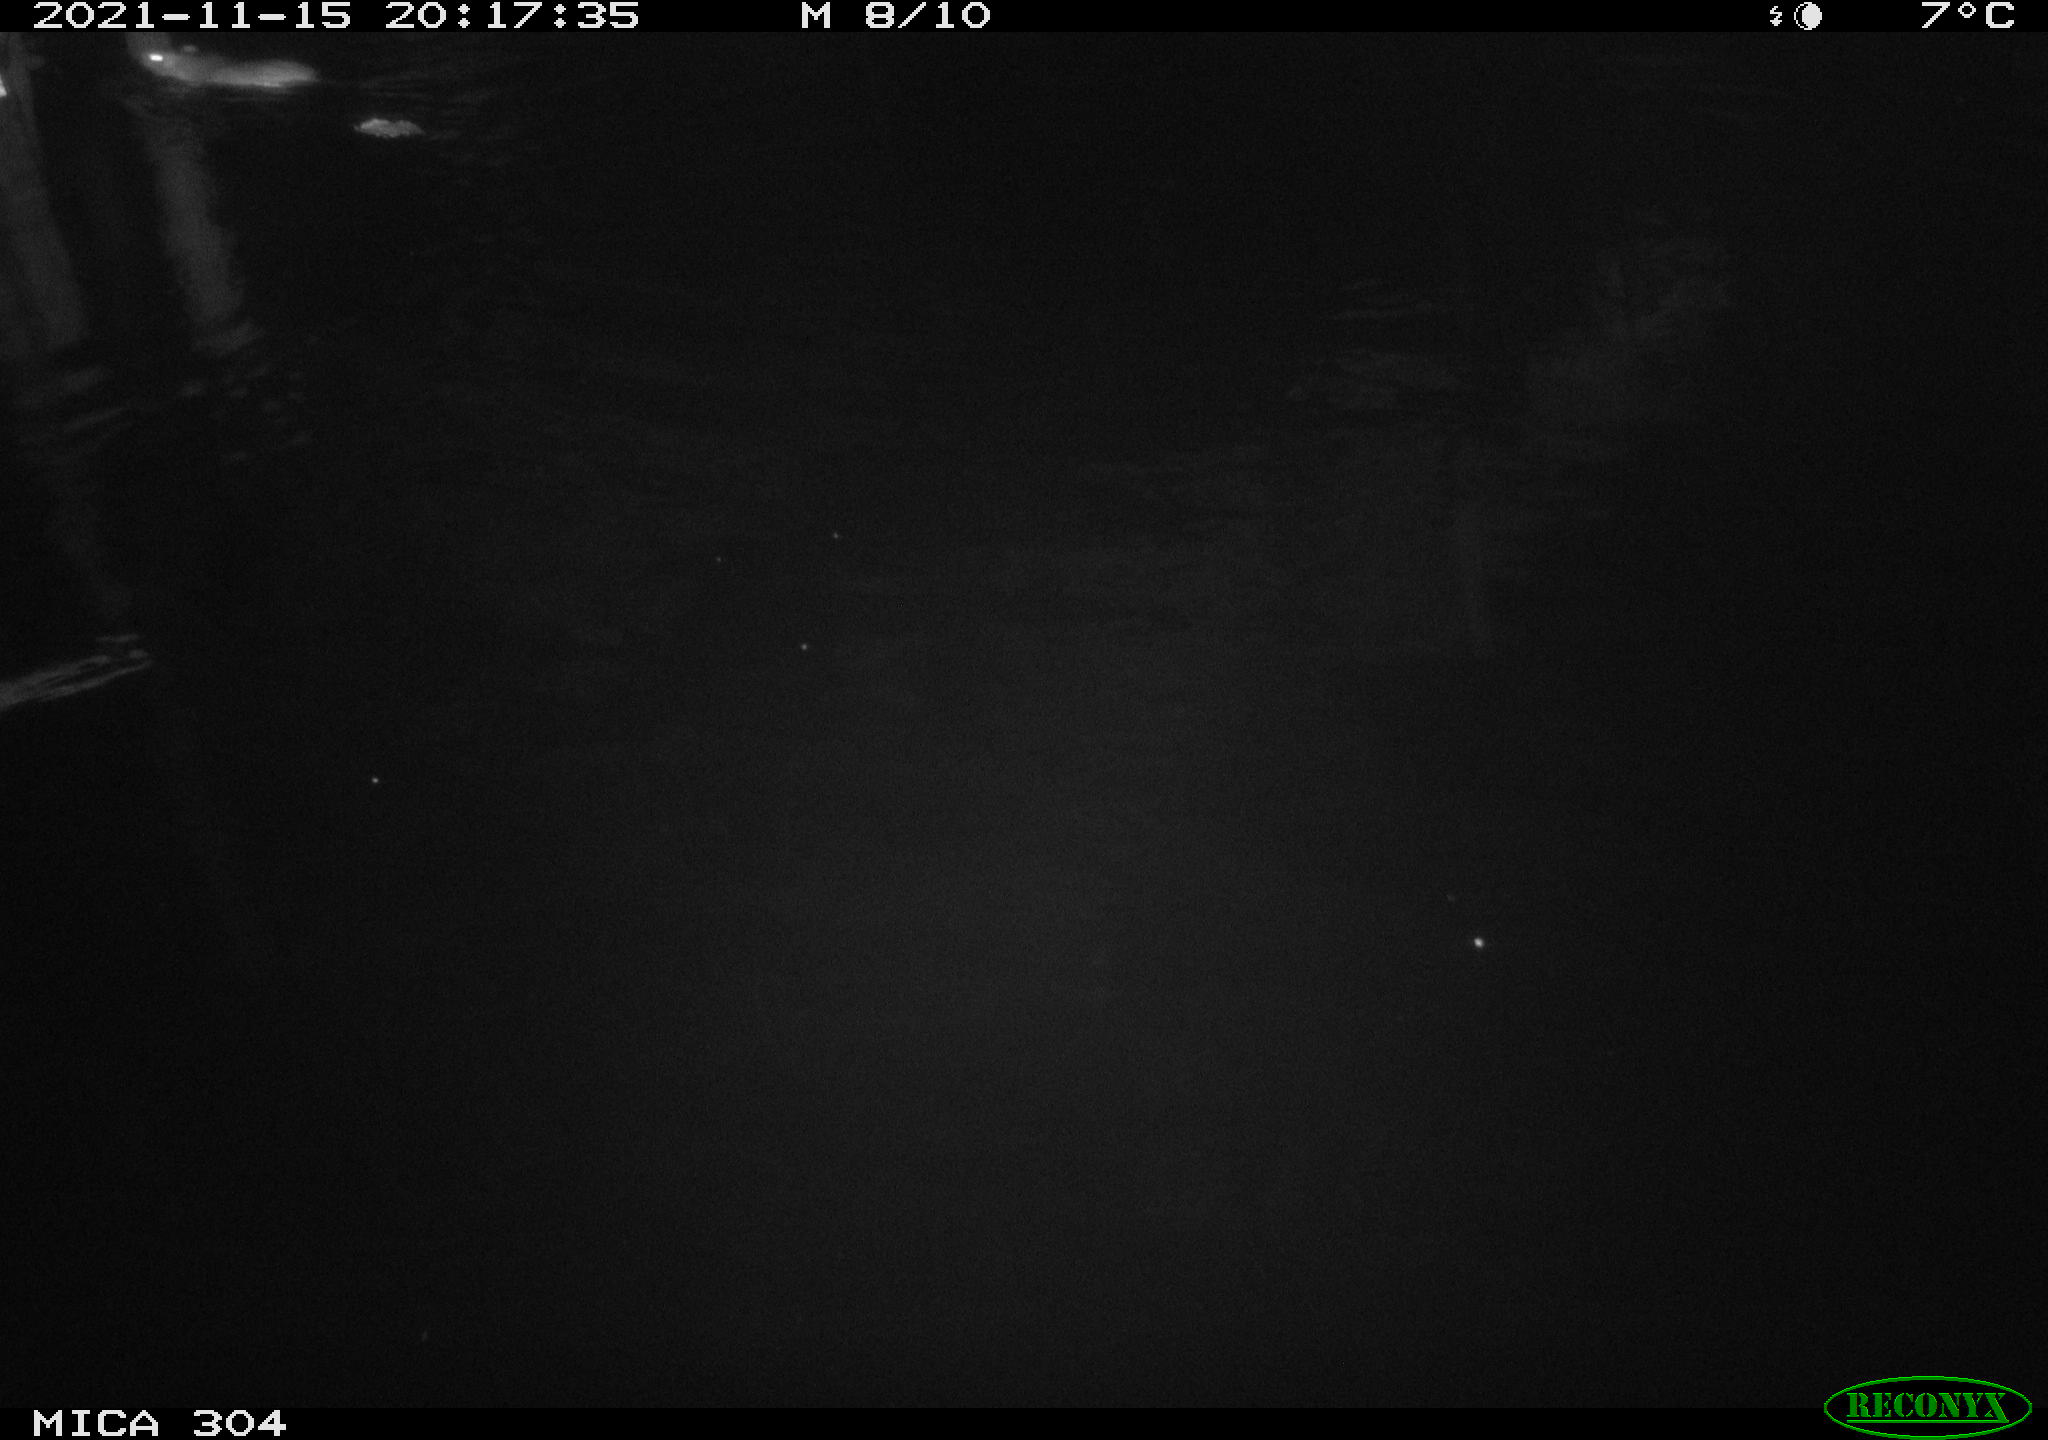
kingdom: Animalia
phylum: Chordata
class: Mammalia
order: Rodentia
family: Muridae
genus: Rattus
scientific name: Rattus norvegicus
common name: Brown rat
